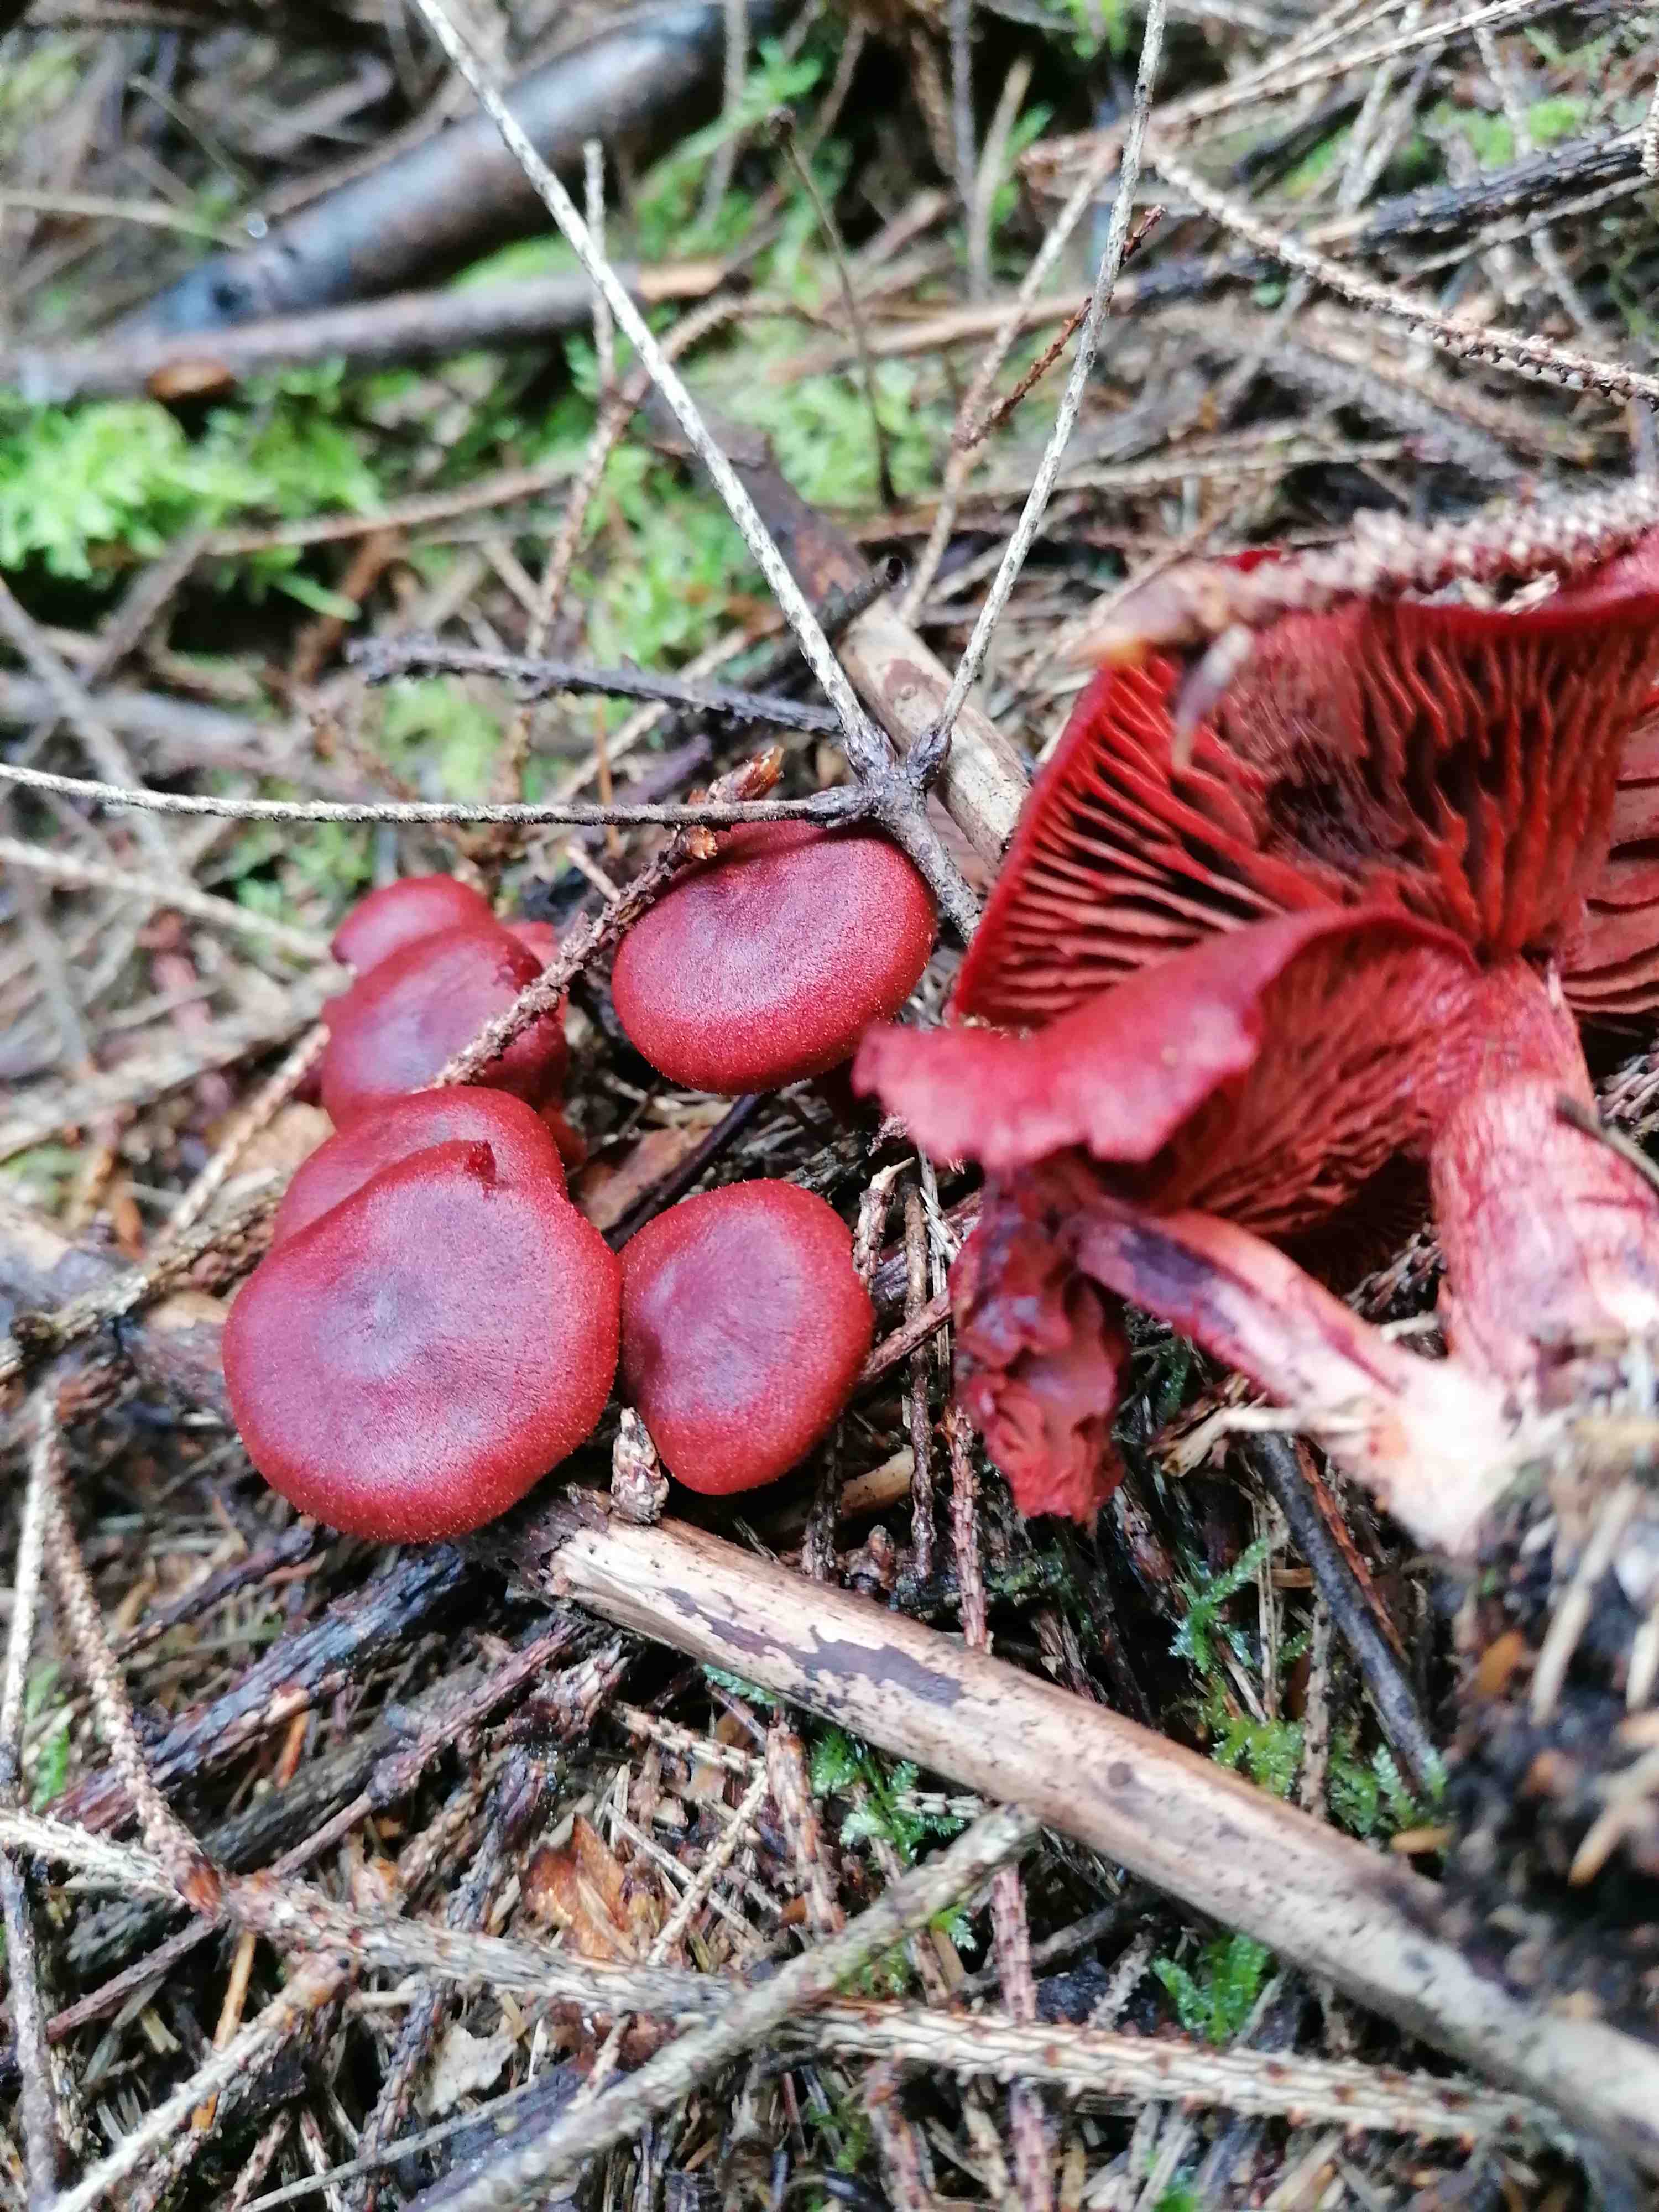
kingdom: Fungi
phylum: Basidiomycota
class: Agaricomycetes
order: Agaricales
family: Cortinariaceae
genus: Cortinarius
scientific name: Cortinarius sanguineus
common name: blodrød slørhat
